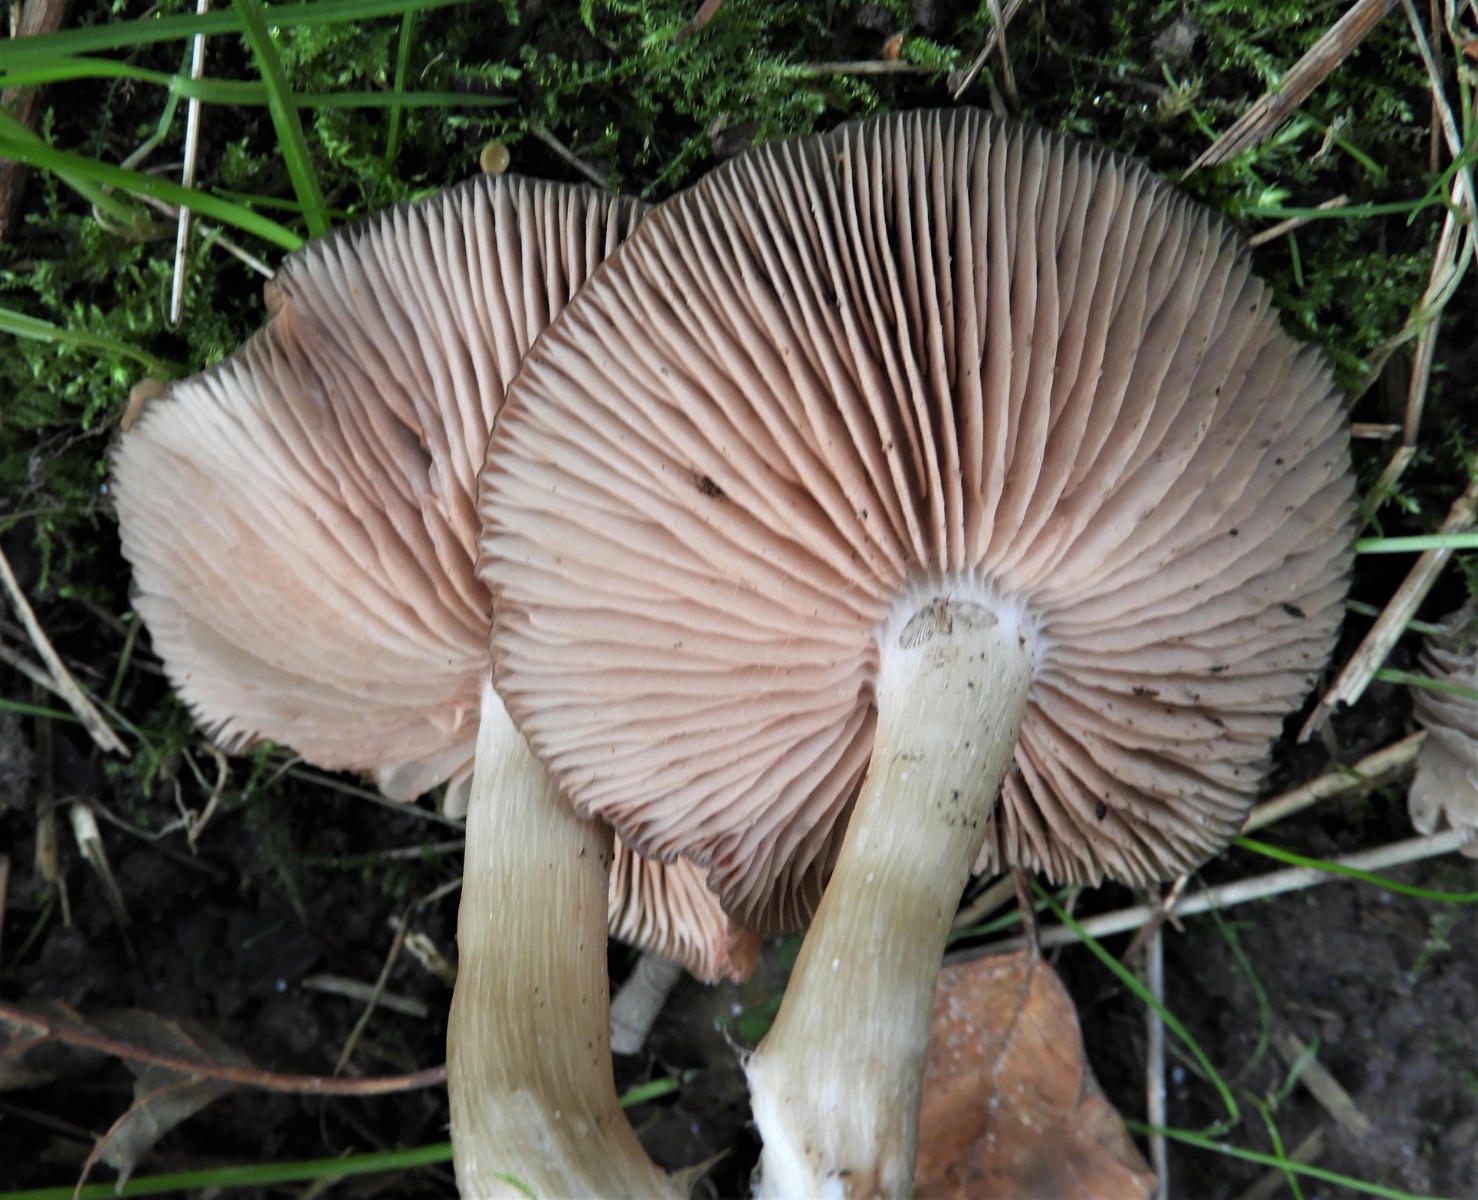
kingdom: Fungi
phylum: Basidiomycota
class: Agaricomycetes
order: Agaricales
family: Entolomataceae
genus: Entoloma
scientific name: Entoloma
